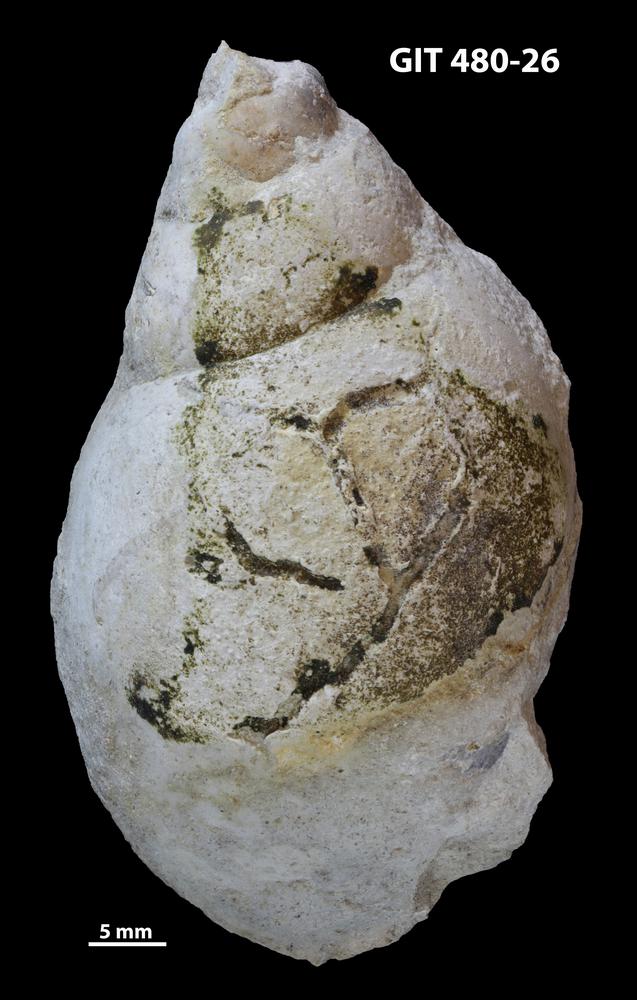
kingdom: Animalia
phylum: Mollusca
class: Gastropoda
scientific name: Gastropoda
